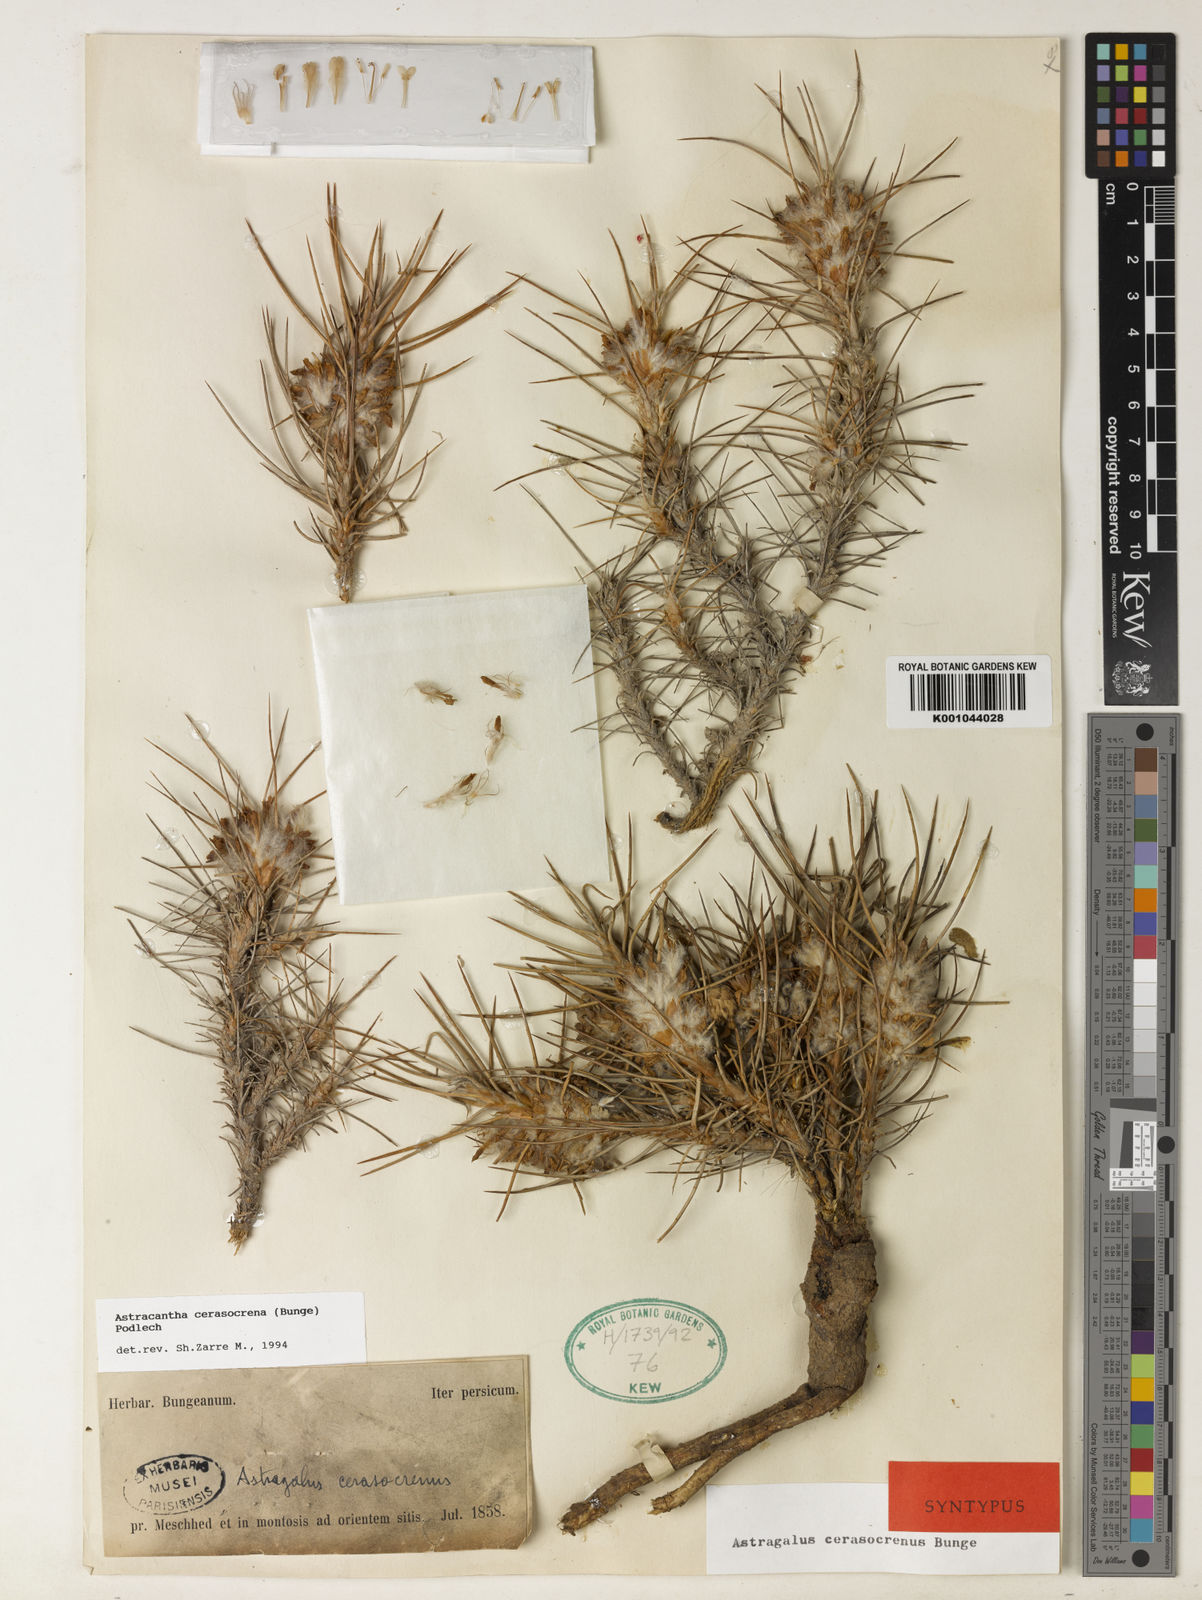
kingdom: Plantae
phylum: Tracheophyta
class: Magnoliopsida
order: Fabales
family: Fabaceae
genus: Astragalus
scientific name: Astragalus cerasocrenus
